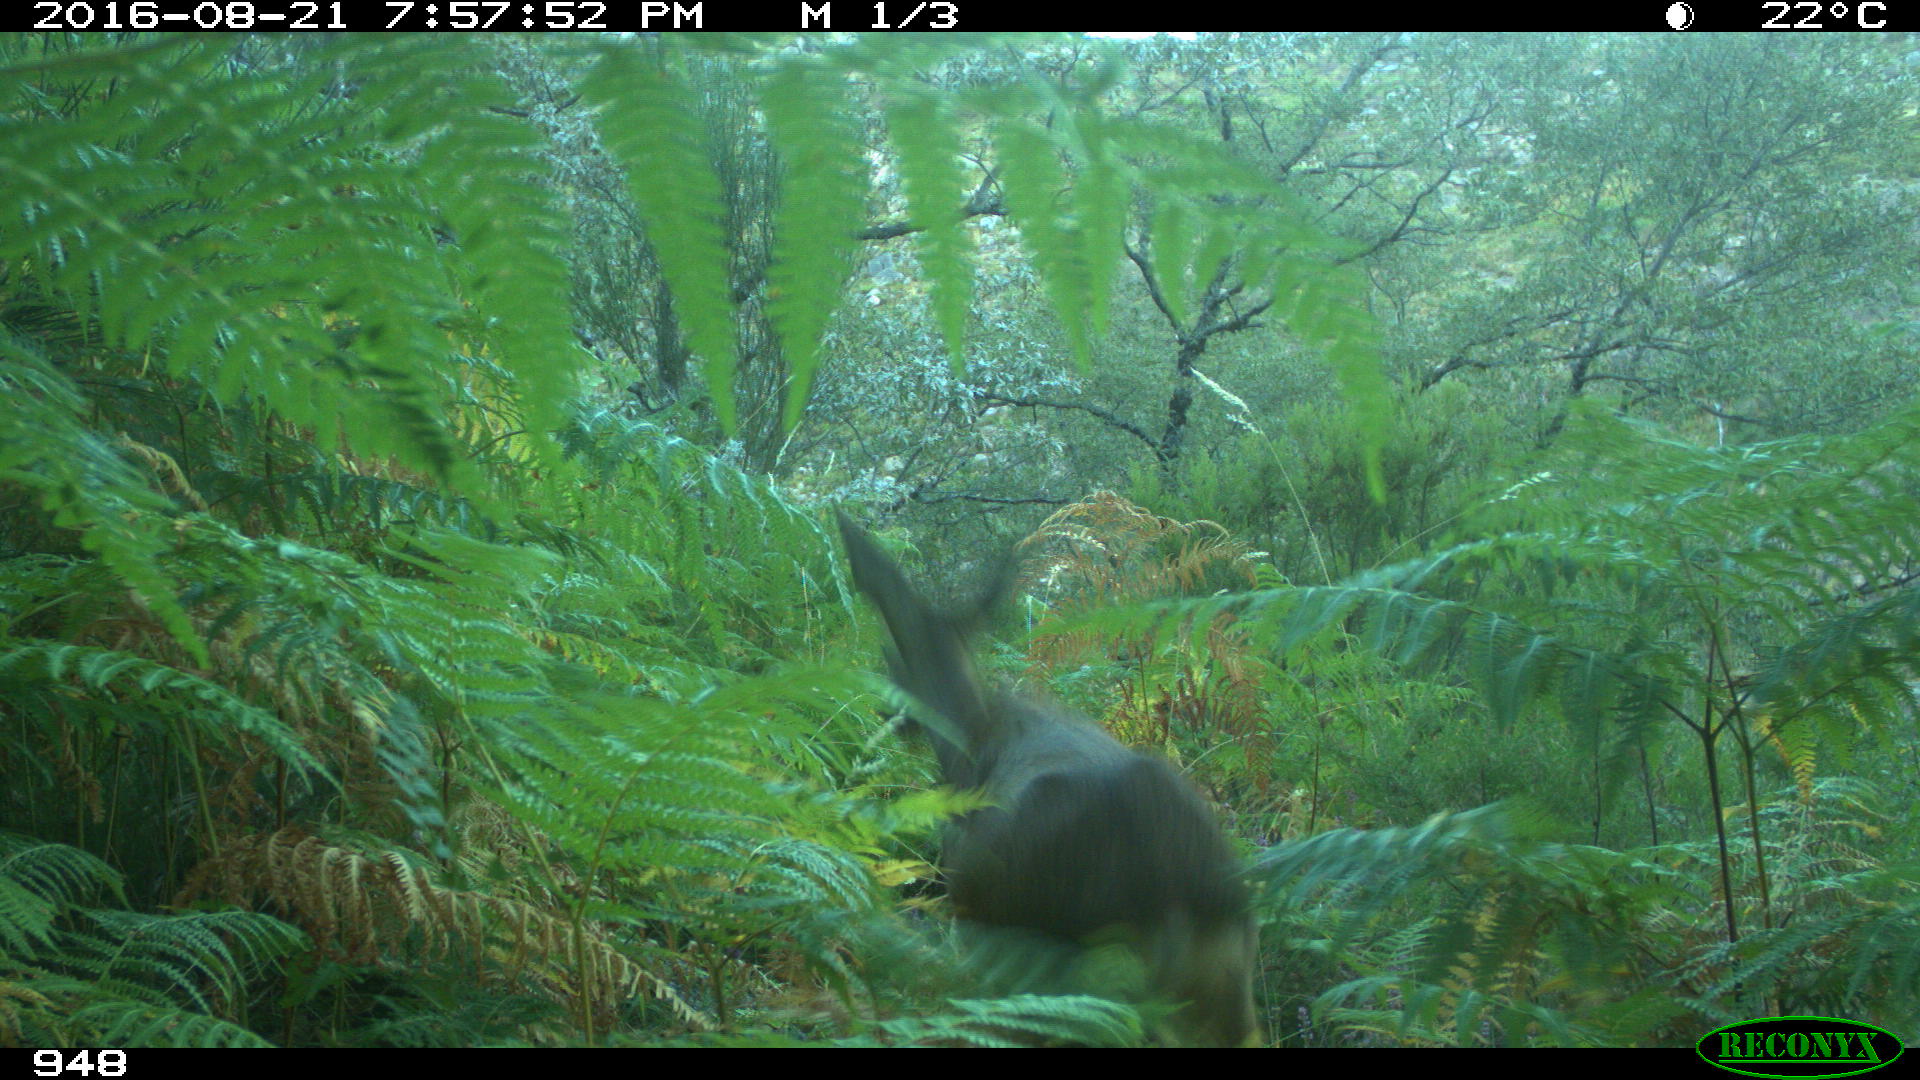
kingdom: Animalia
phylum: Chordata
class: Mammalia
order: Artiodactyla
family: Cervidae
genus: Capreolus
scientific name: Capreolus capreolus
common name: Western roe deer
